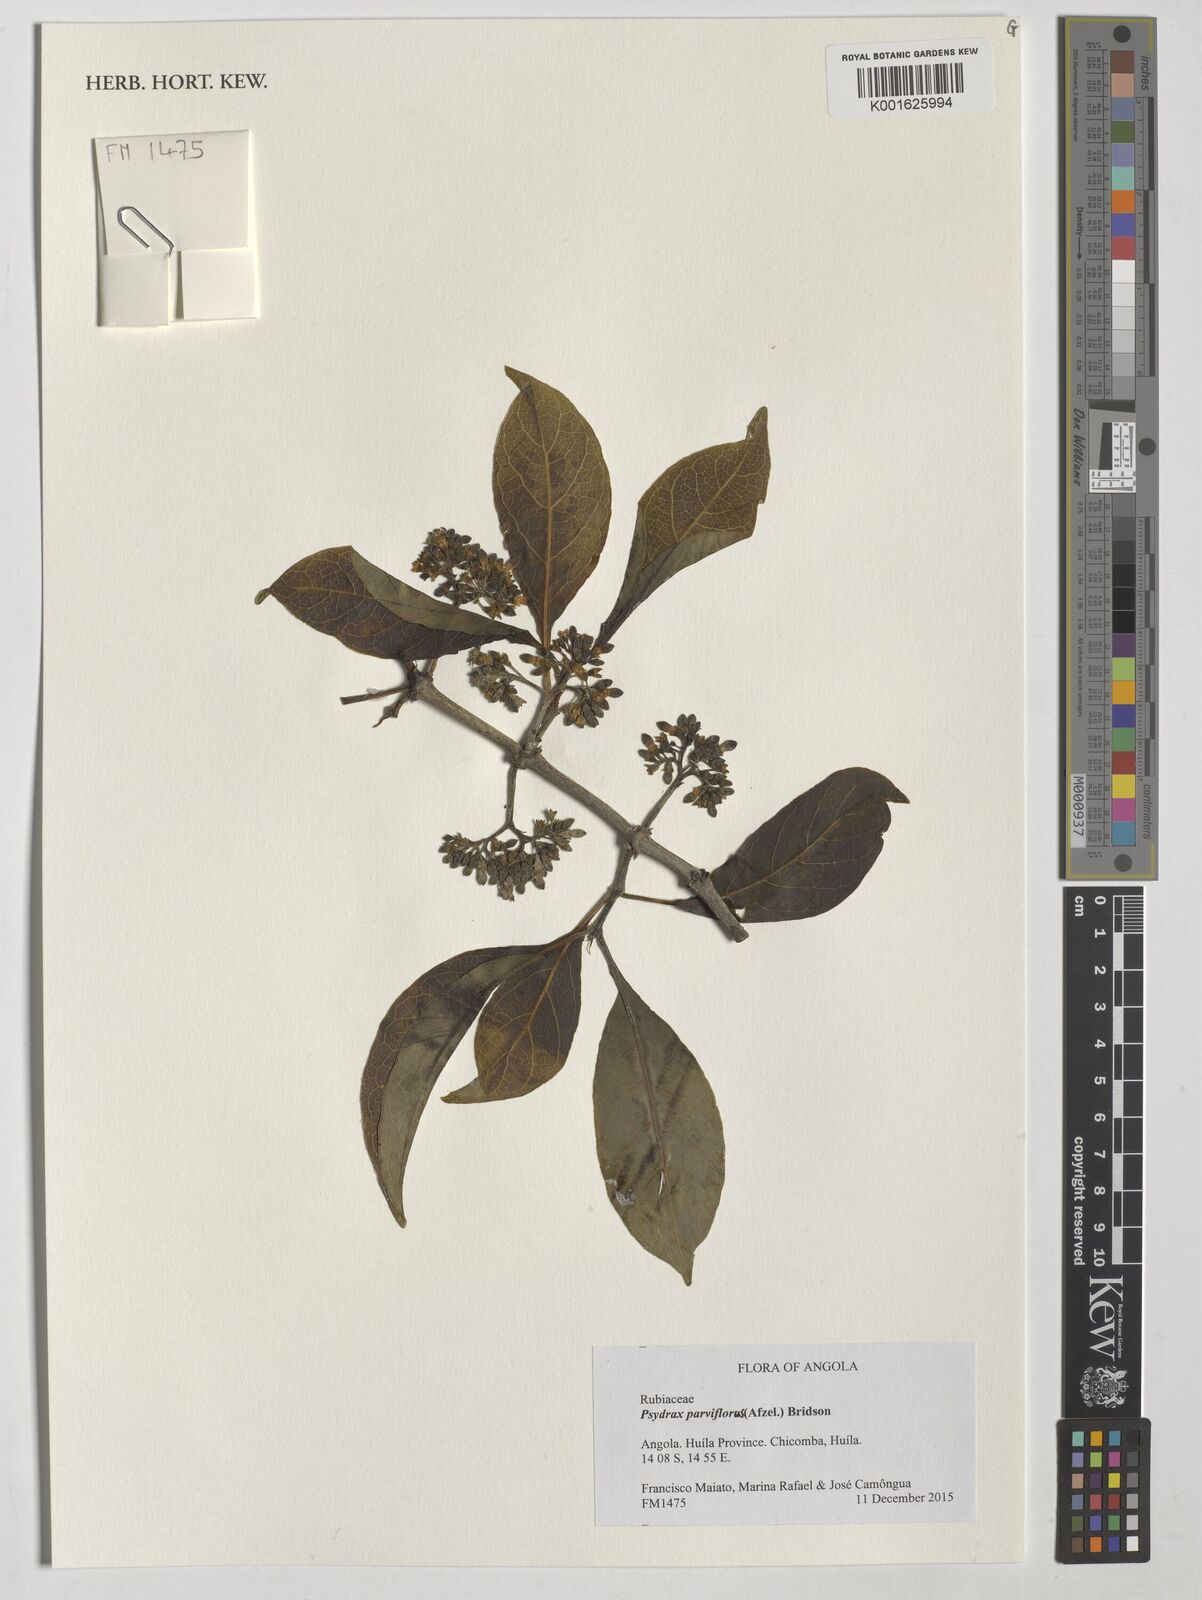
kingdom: Plantae
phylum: Tracheophyta
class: Magnoliopsida
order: Gentianales
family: Rubiaceae
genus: Psydrax
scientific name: Psydrax parviflorus
